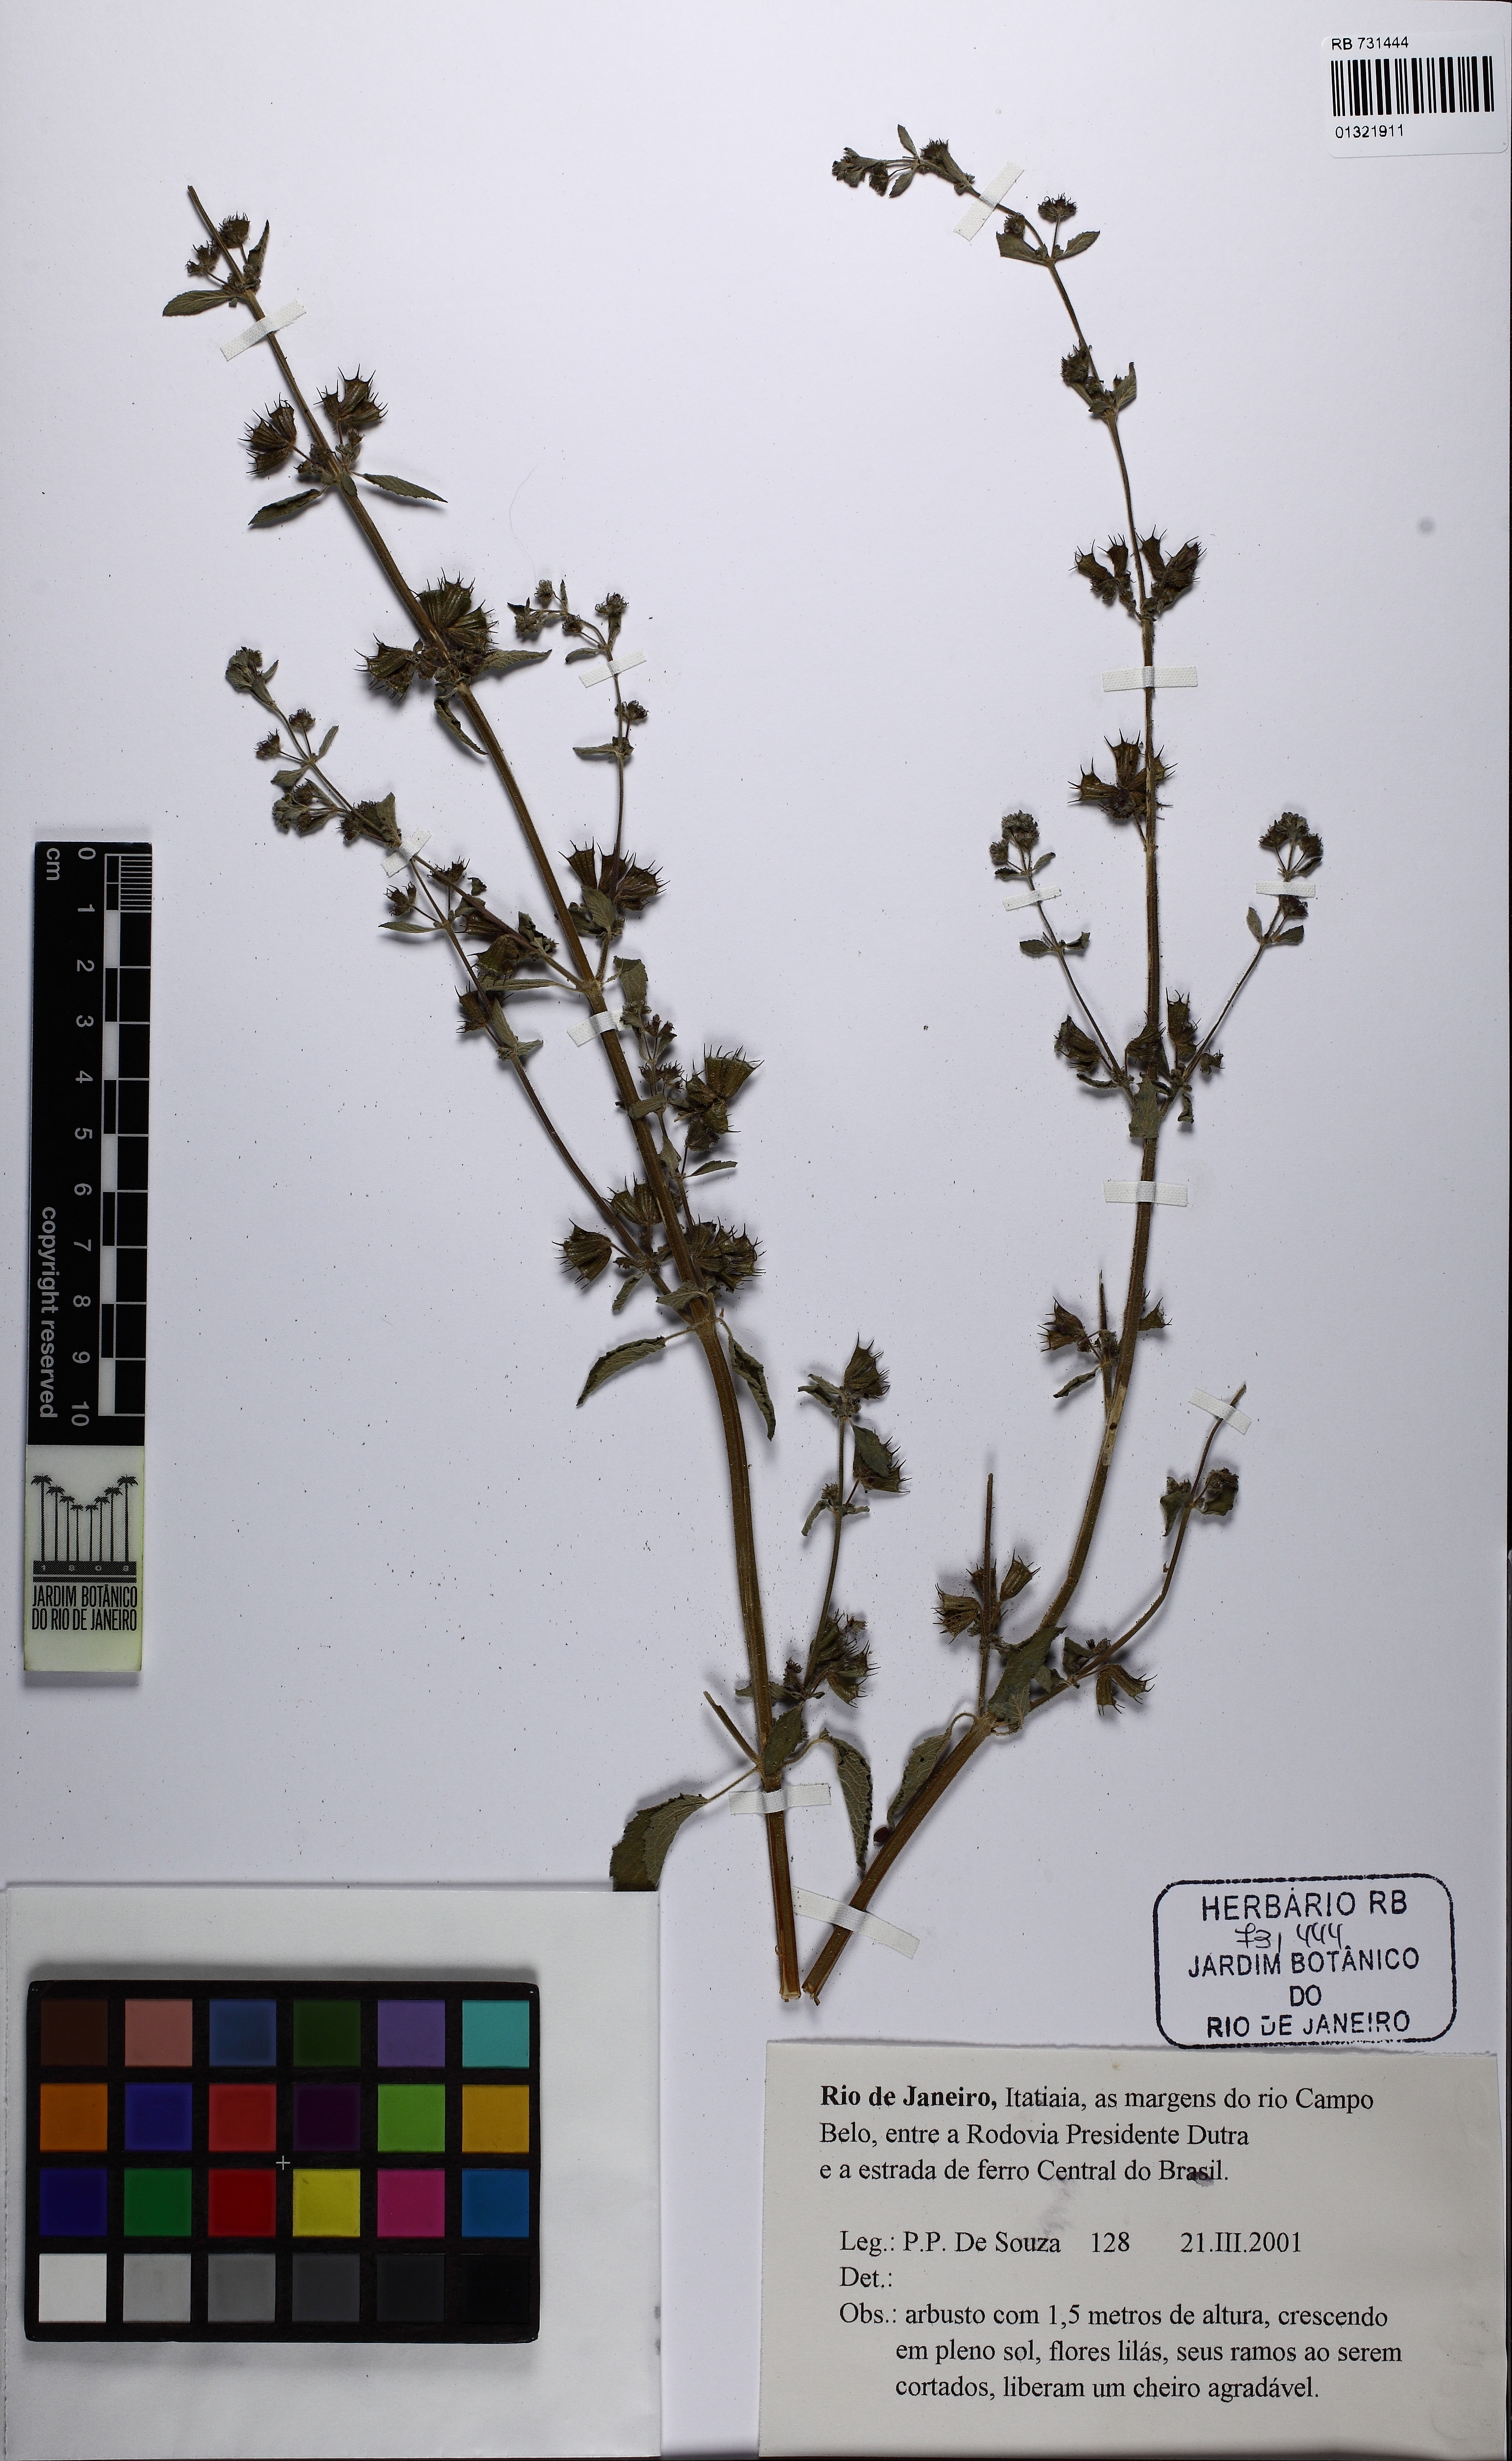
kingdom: Plantae
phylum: Tracheophyta
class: Magnoliopsida
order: Lamiales
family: Lamiaceae
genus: Mesosphaerum
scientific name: Mesosphaerum suaveolens
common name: Pignut
